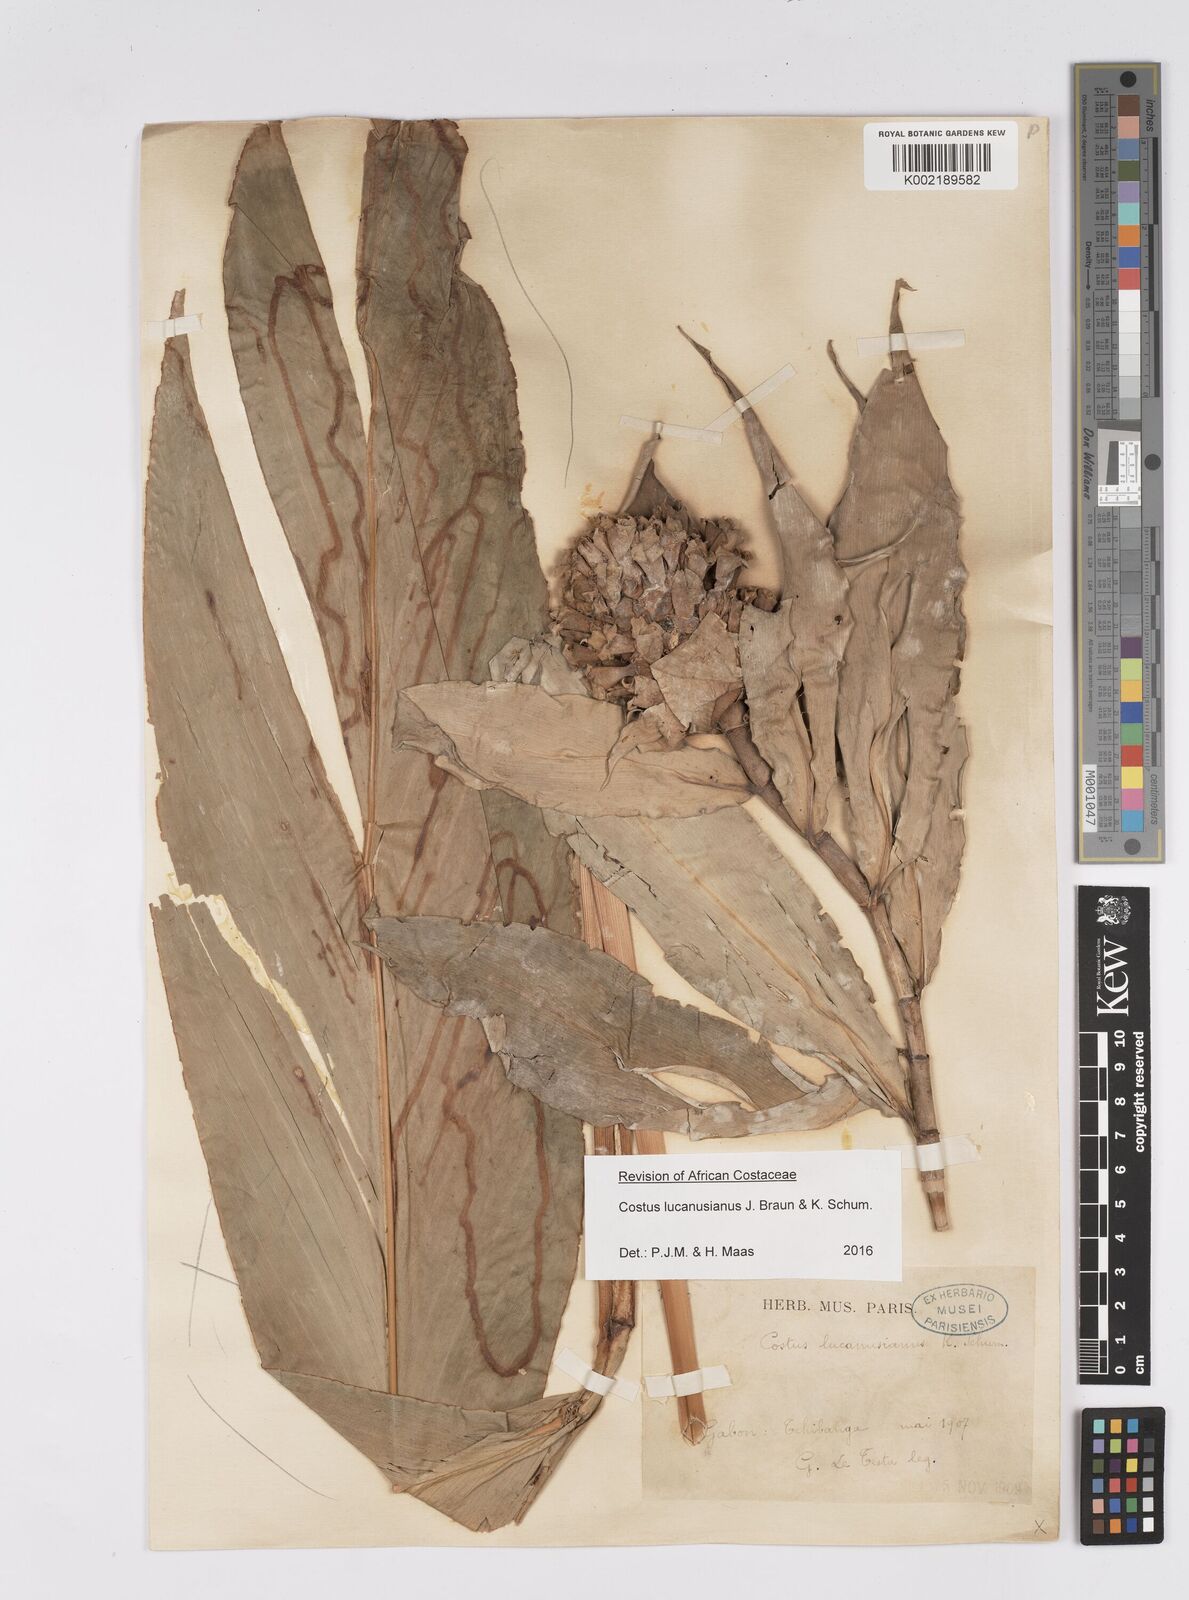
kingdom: Plantae
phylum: Tracheophyta
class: Liliopsida
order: Zingiberales
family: Costaceae
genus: Costus
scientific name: Costus lucanusianus
